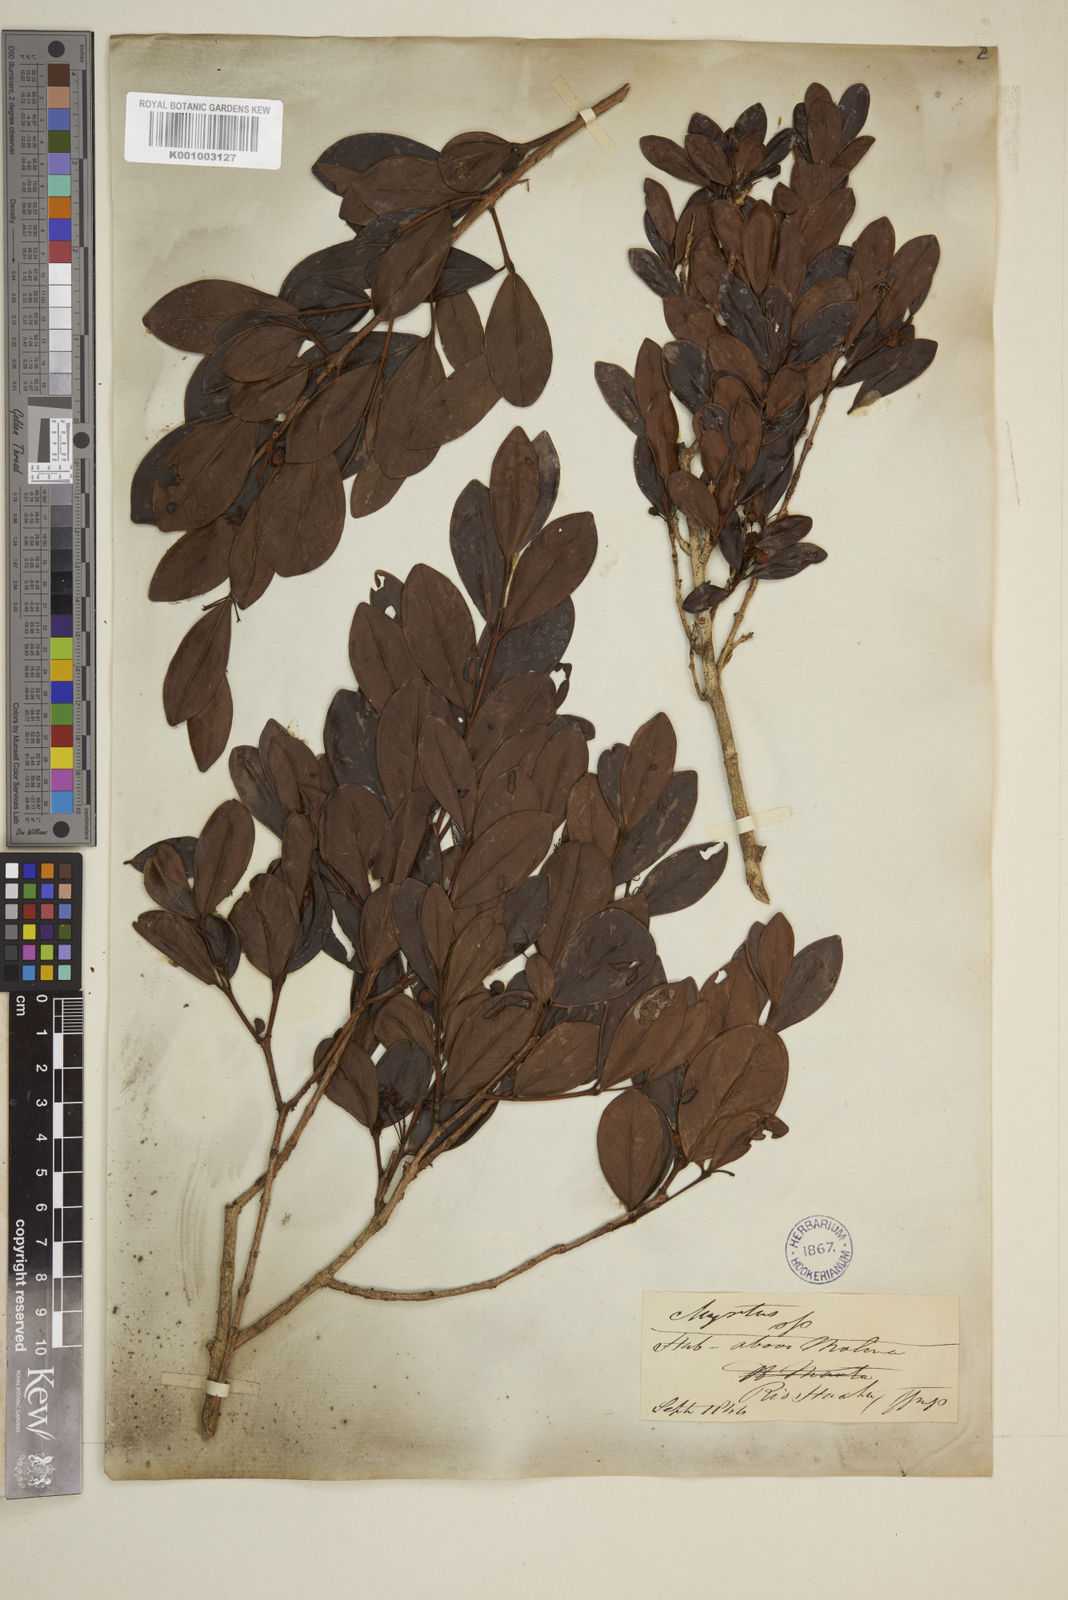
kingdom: Plantae
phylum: Tracheophyta
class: Magnoliopsida
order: Myrtales
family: Myrtaceae
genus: Eugenia
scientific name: Eugenia
